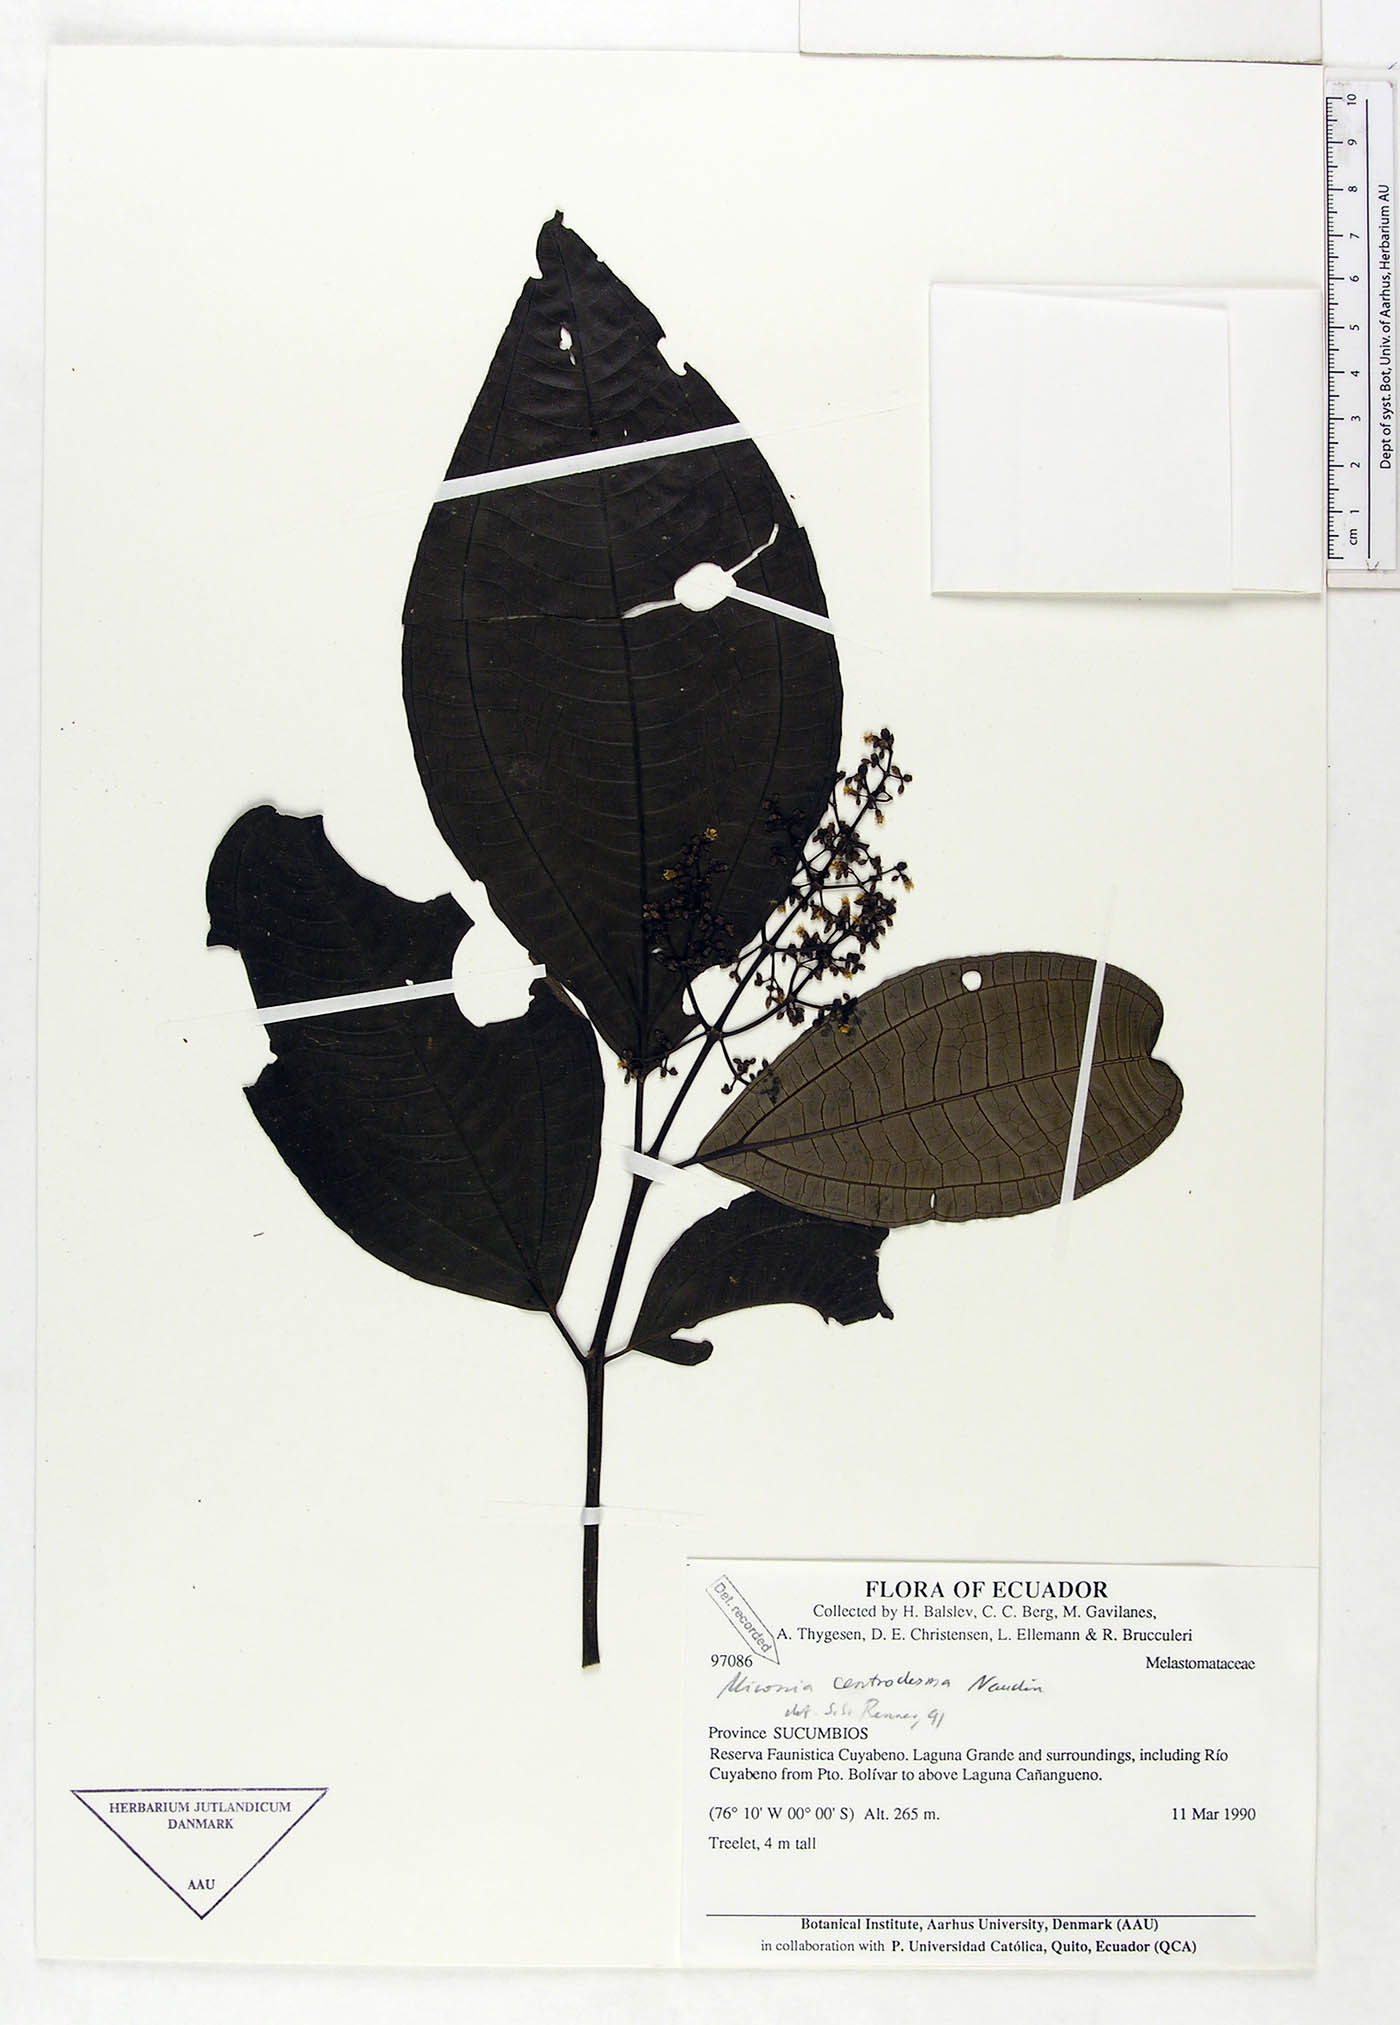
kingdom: Plantae
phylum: Tracheophyta
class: Magnoliopsida
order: Myrtales
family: Melastomataceae
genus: Miconia
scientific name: Miconia centrodesma
